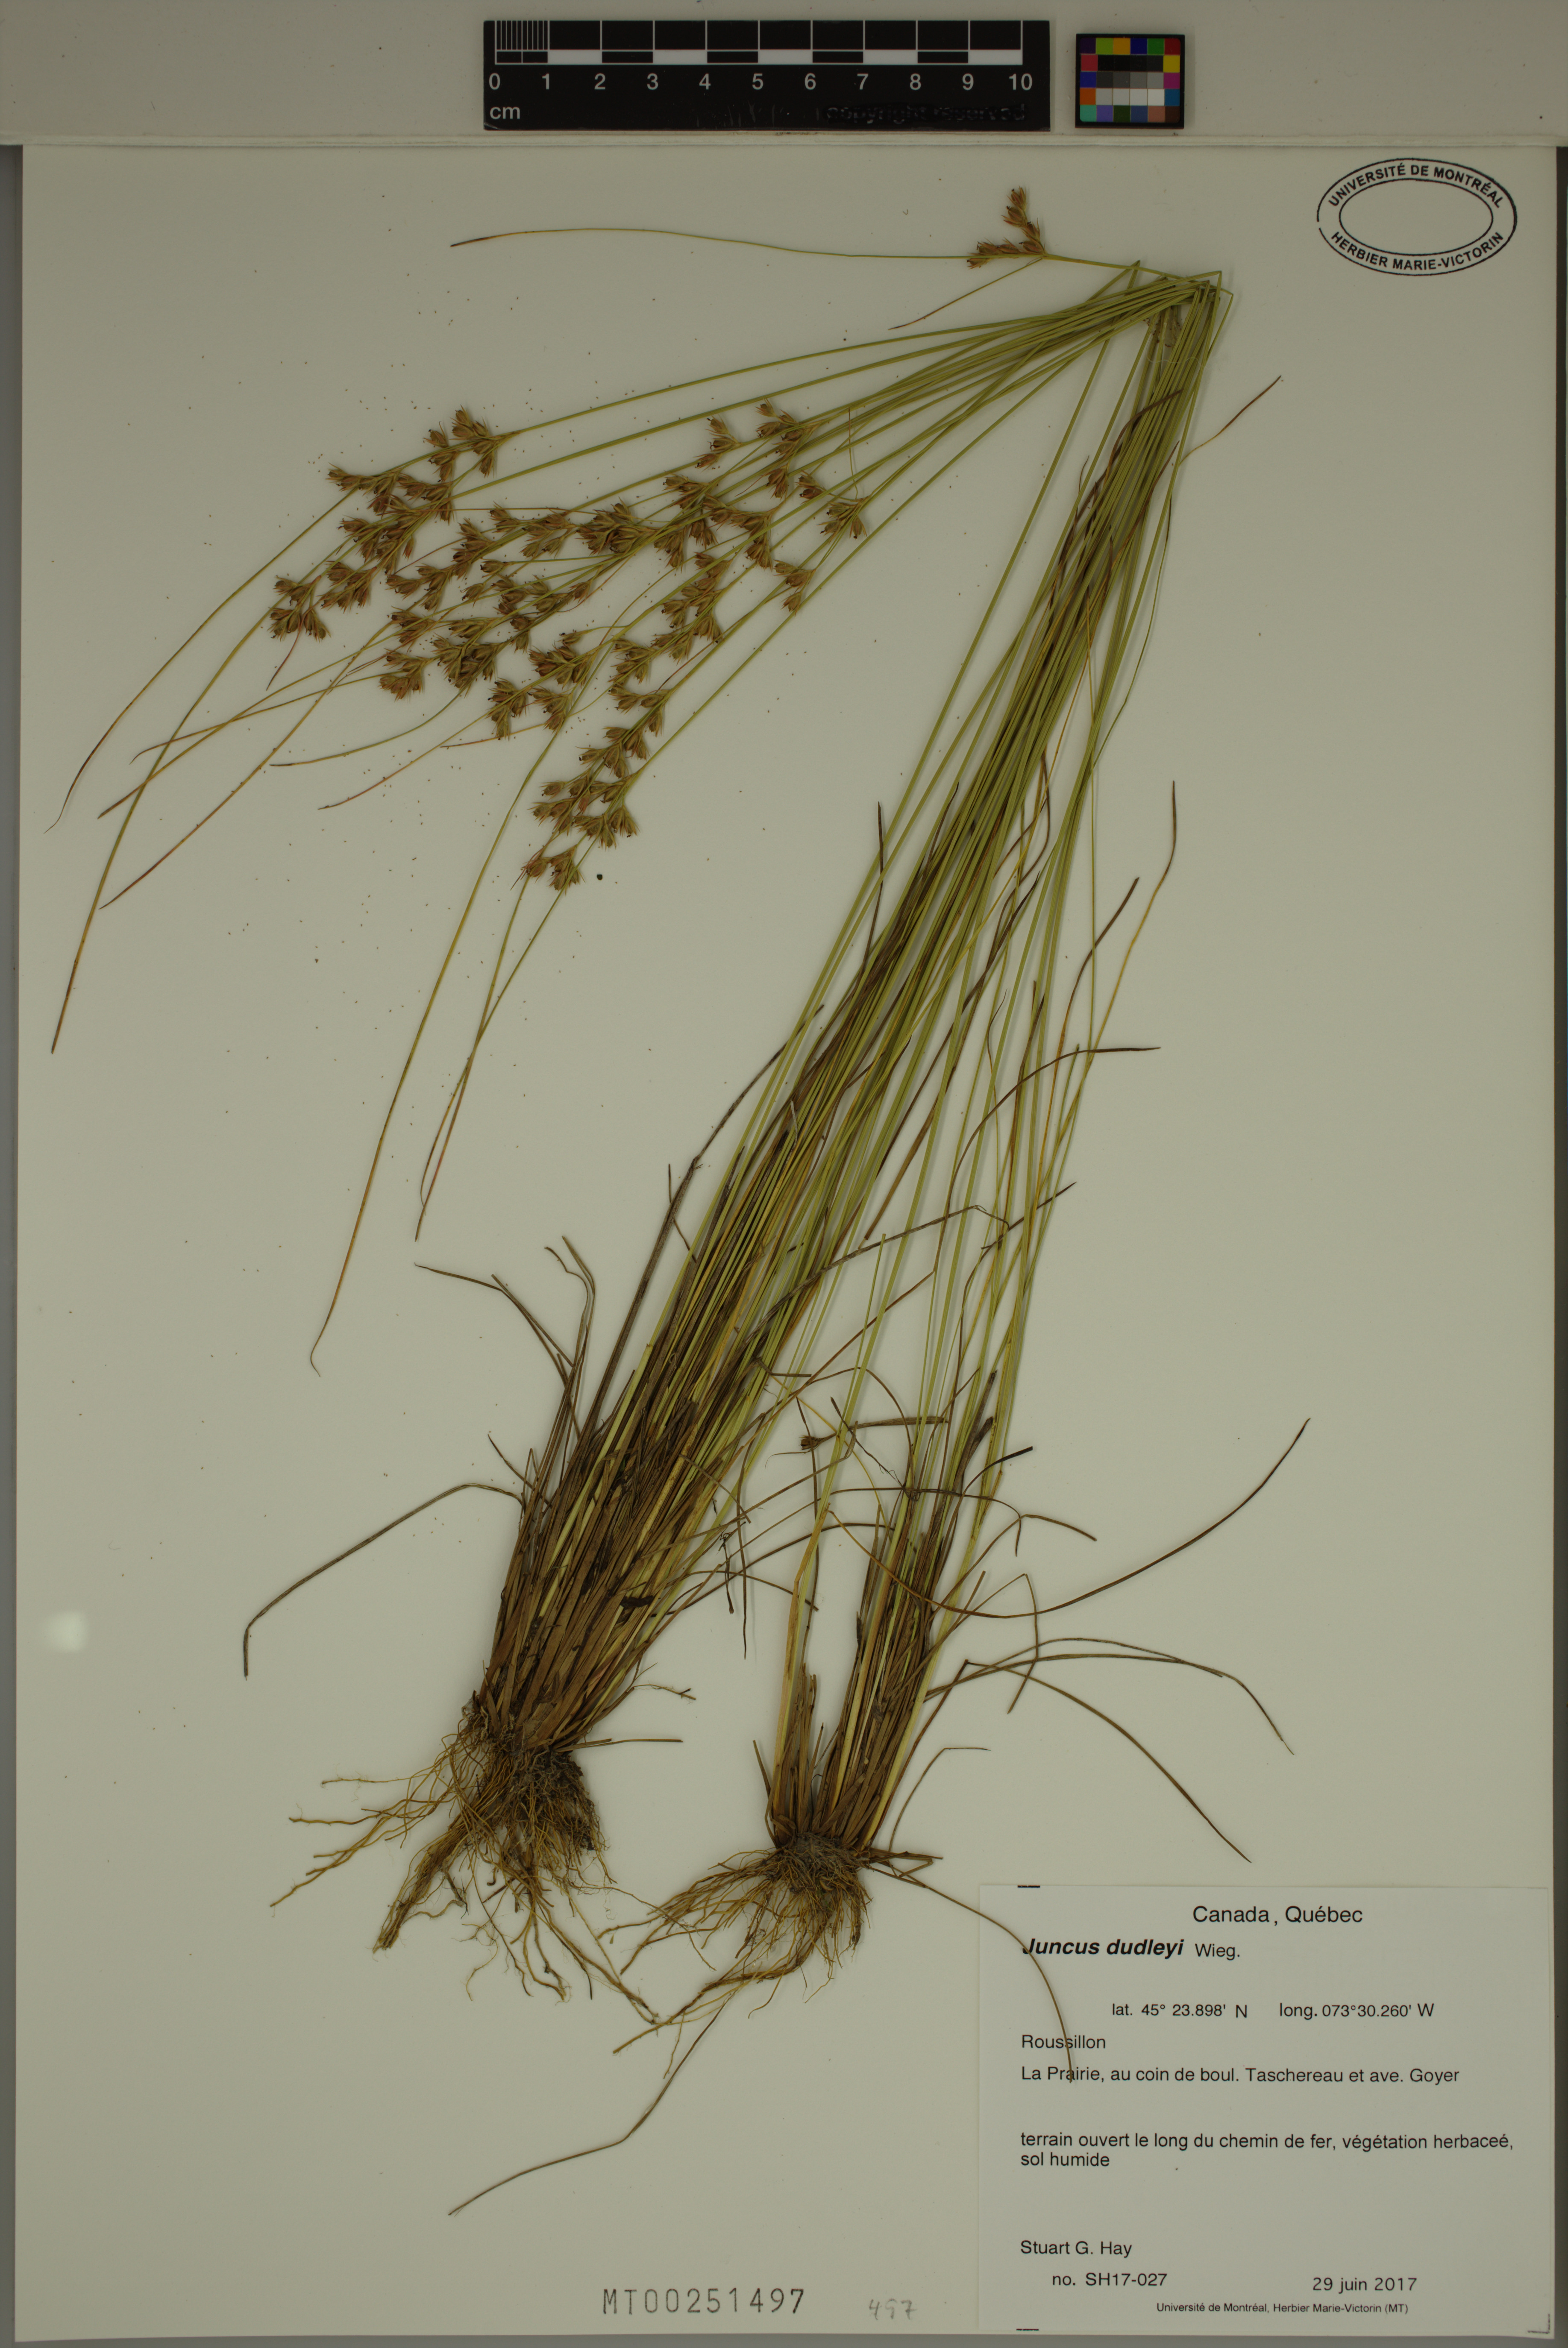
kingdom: Plantae
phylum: Tracheophyta
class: Liliopsida
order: Poales
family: Juncaceae
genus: Juncus
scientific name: Juncus dudleyi
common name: Dudley's rush
